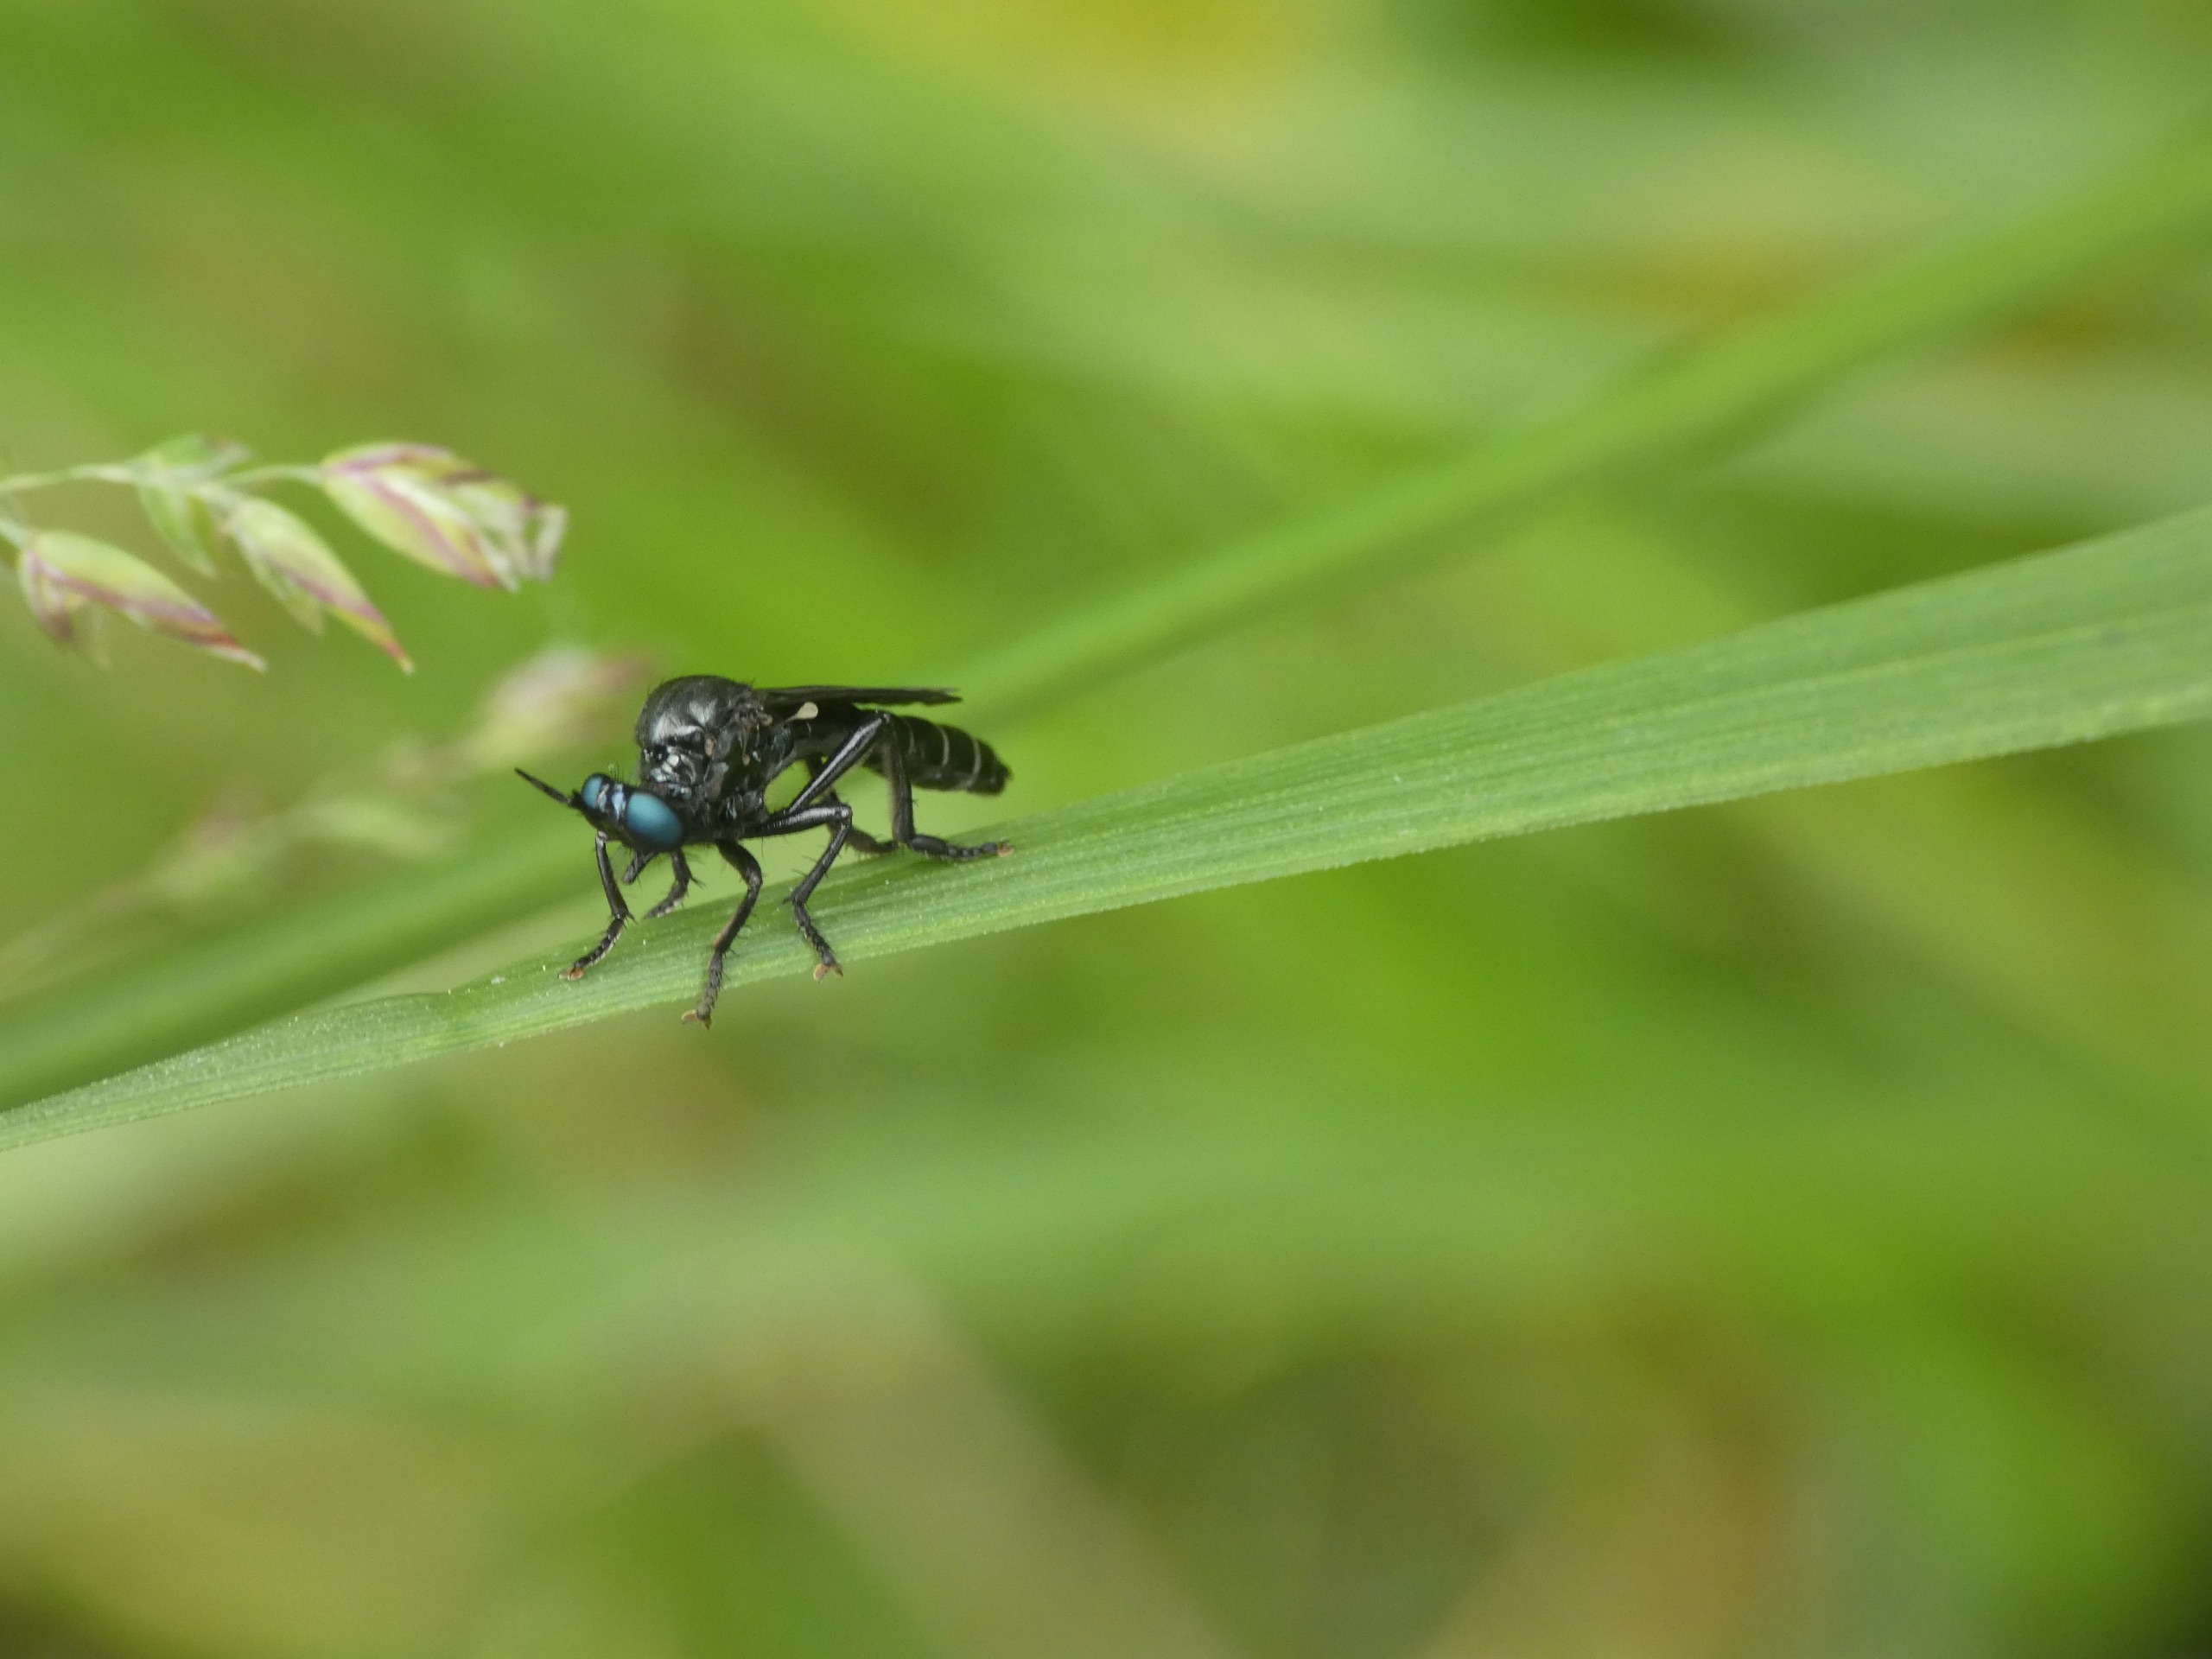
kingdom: Animalia
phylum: Arthropoda
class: Insecta
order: Diptera
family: Asilidae
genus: Dioctria
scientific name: Dioctria atricapilla
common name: Sort engrovflue
